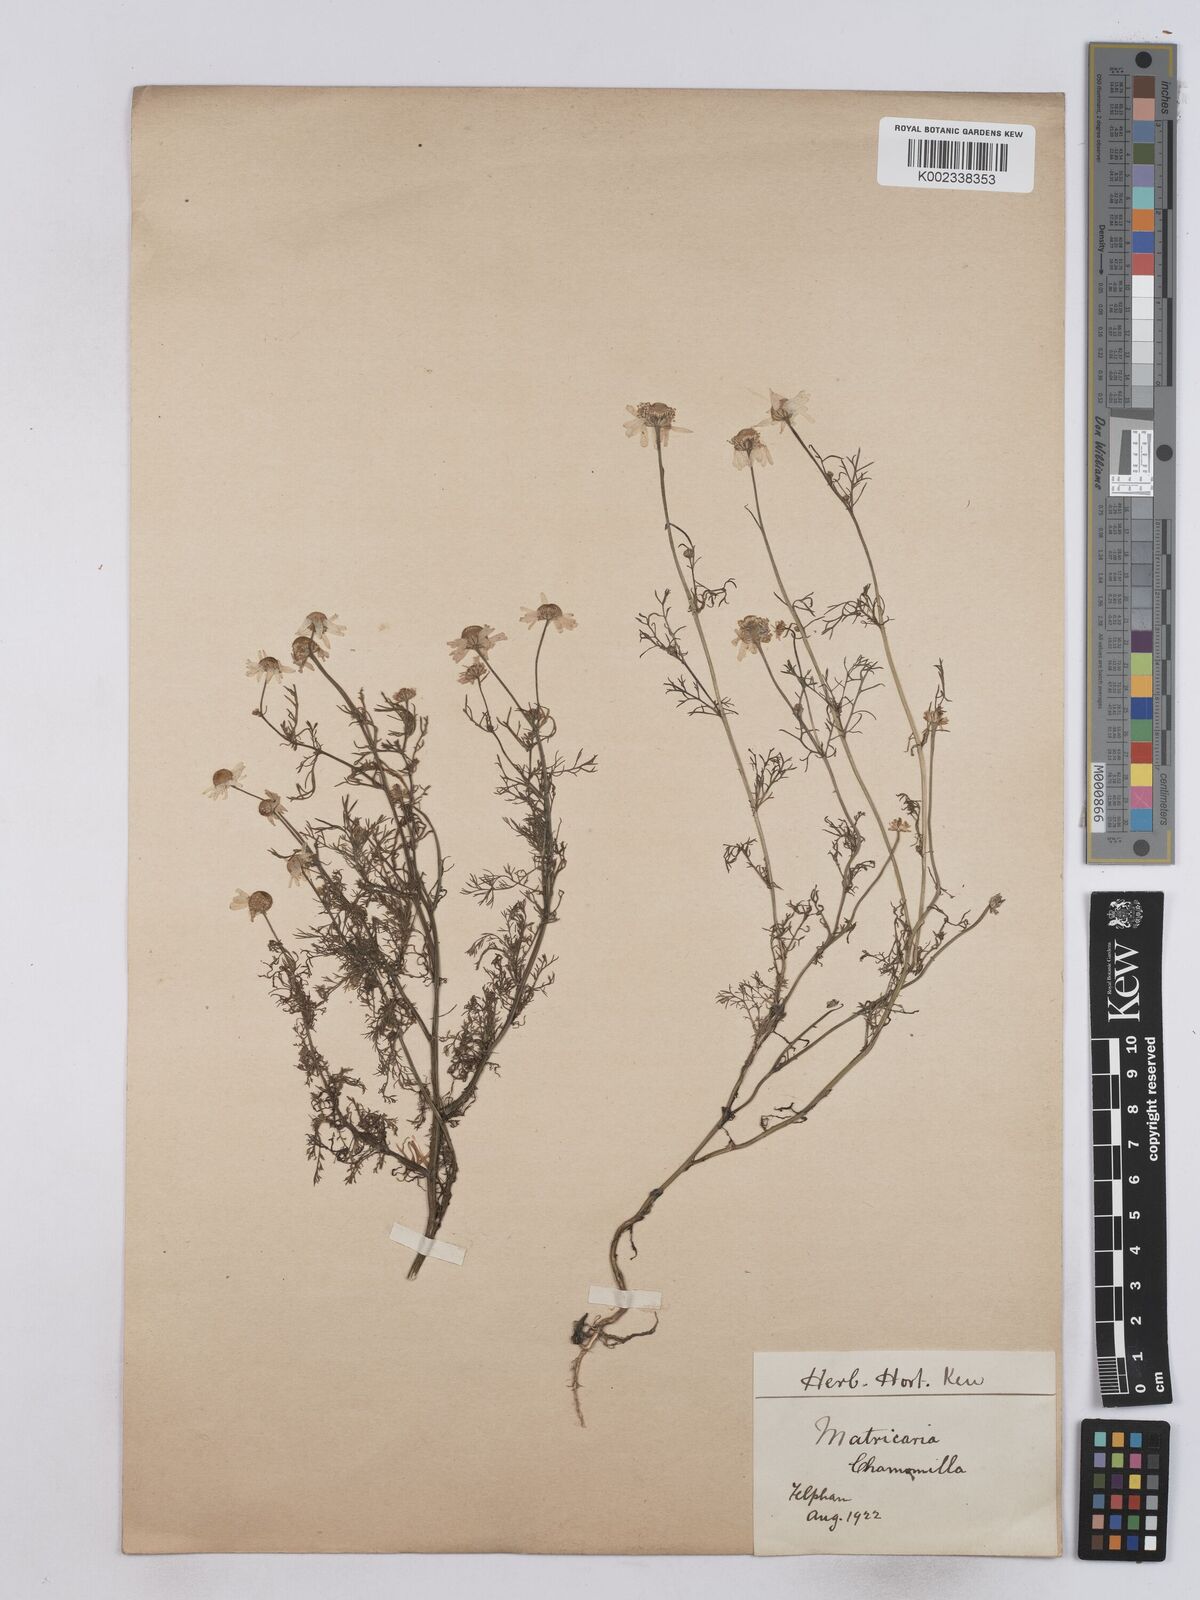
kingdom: Plantae
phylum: Tracheophyta
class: Magnoliopsida
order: Asterales
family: Asteraceae
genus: Matricaria
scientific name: Matricaria chamomilla
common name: Scented mayweed
